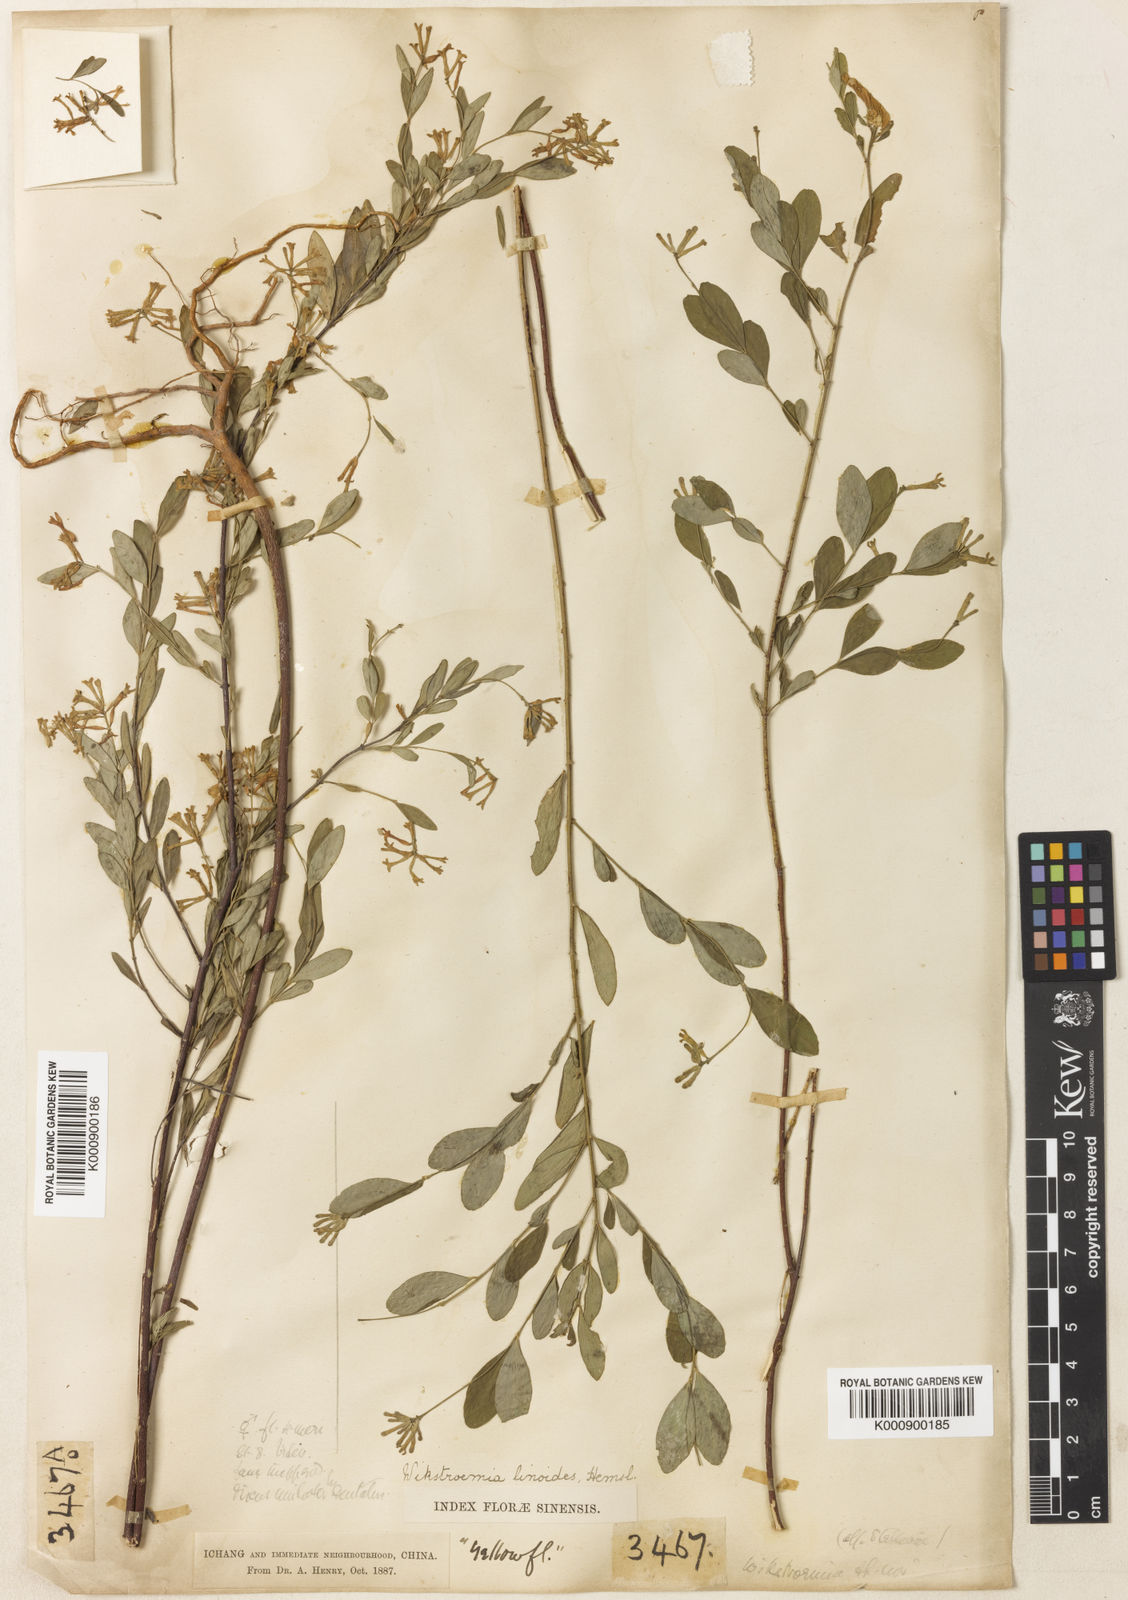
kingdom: Plantae
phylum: Tracheophyta
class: Magnoliopsida
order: Malvales
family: Thymelaeaceae
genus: Wikstroemia
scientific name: Wikstroemia linoides
